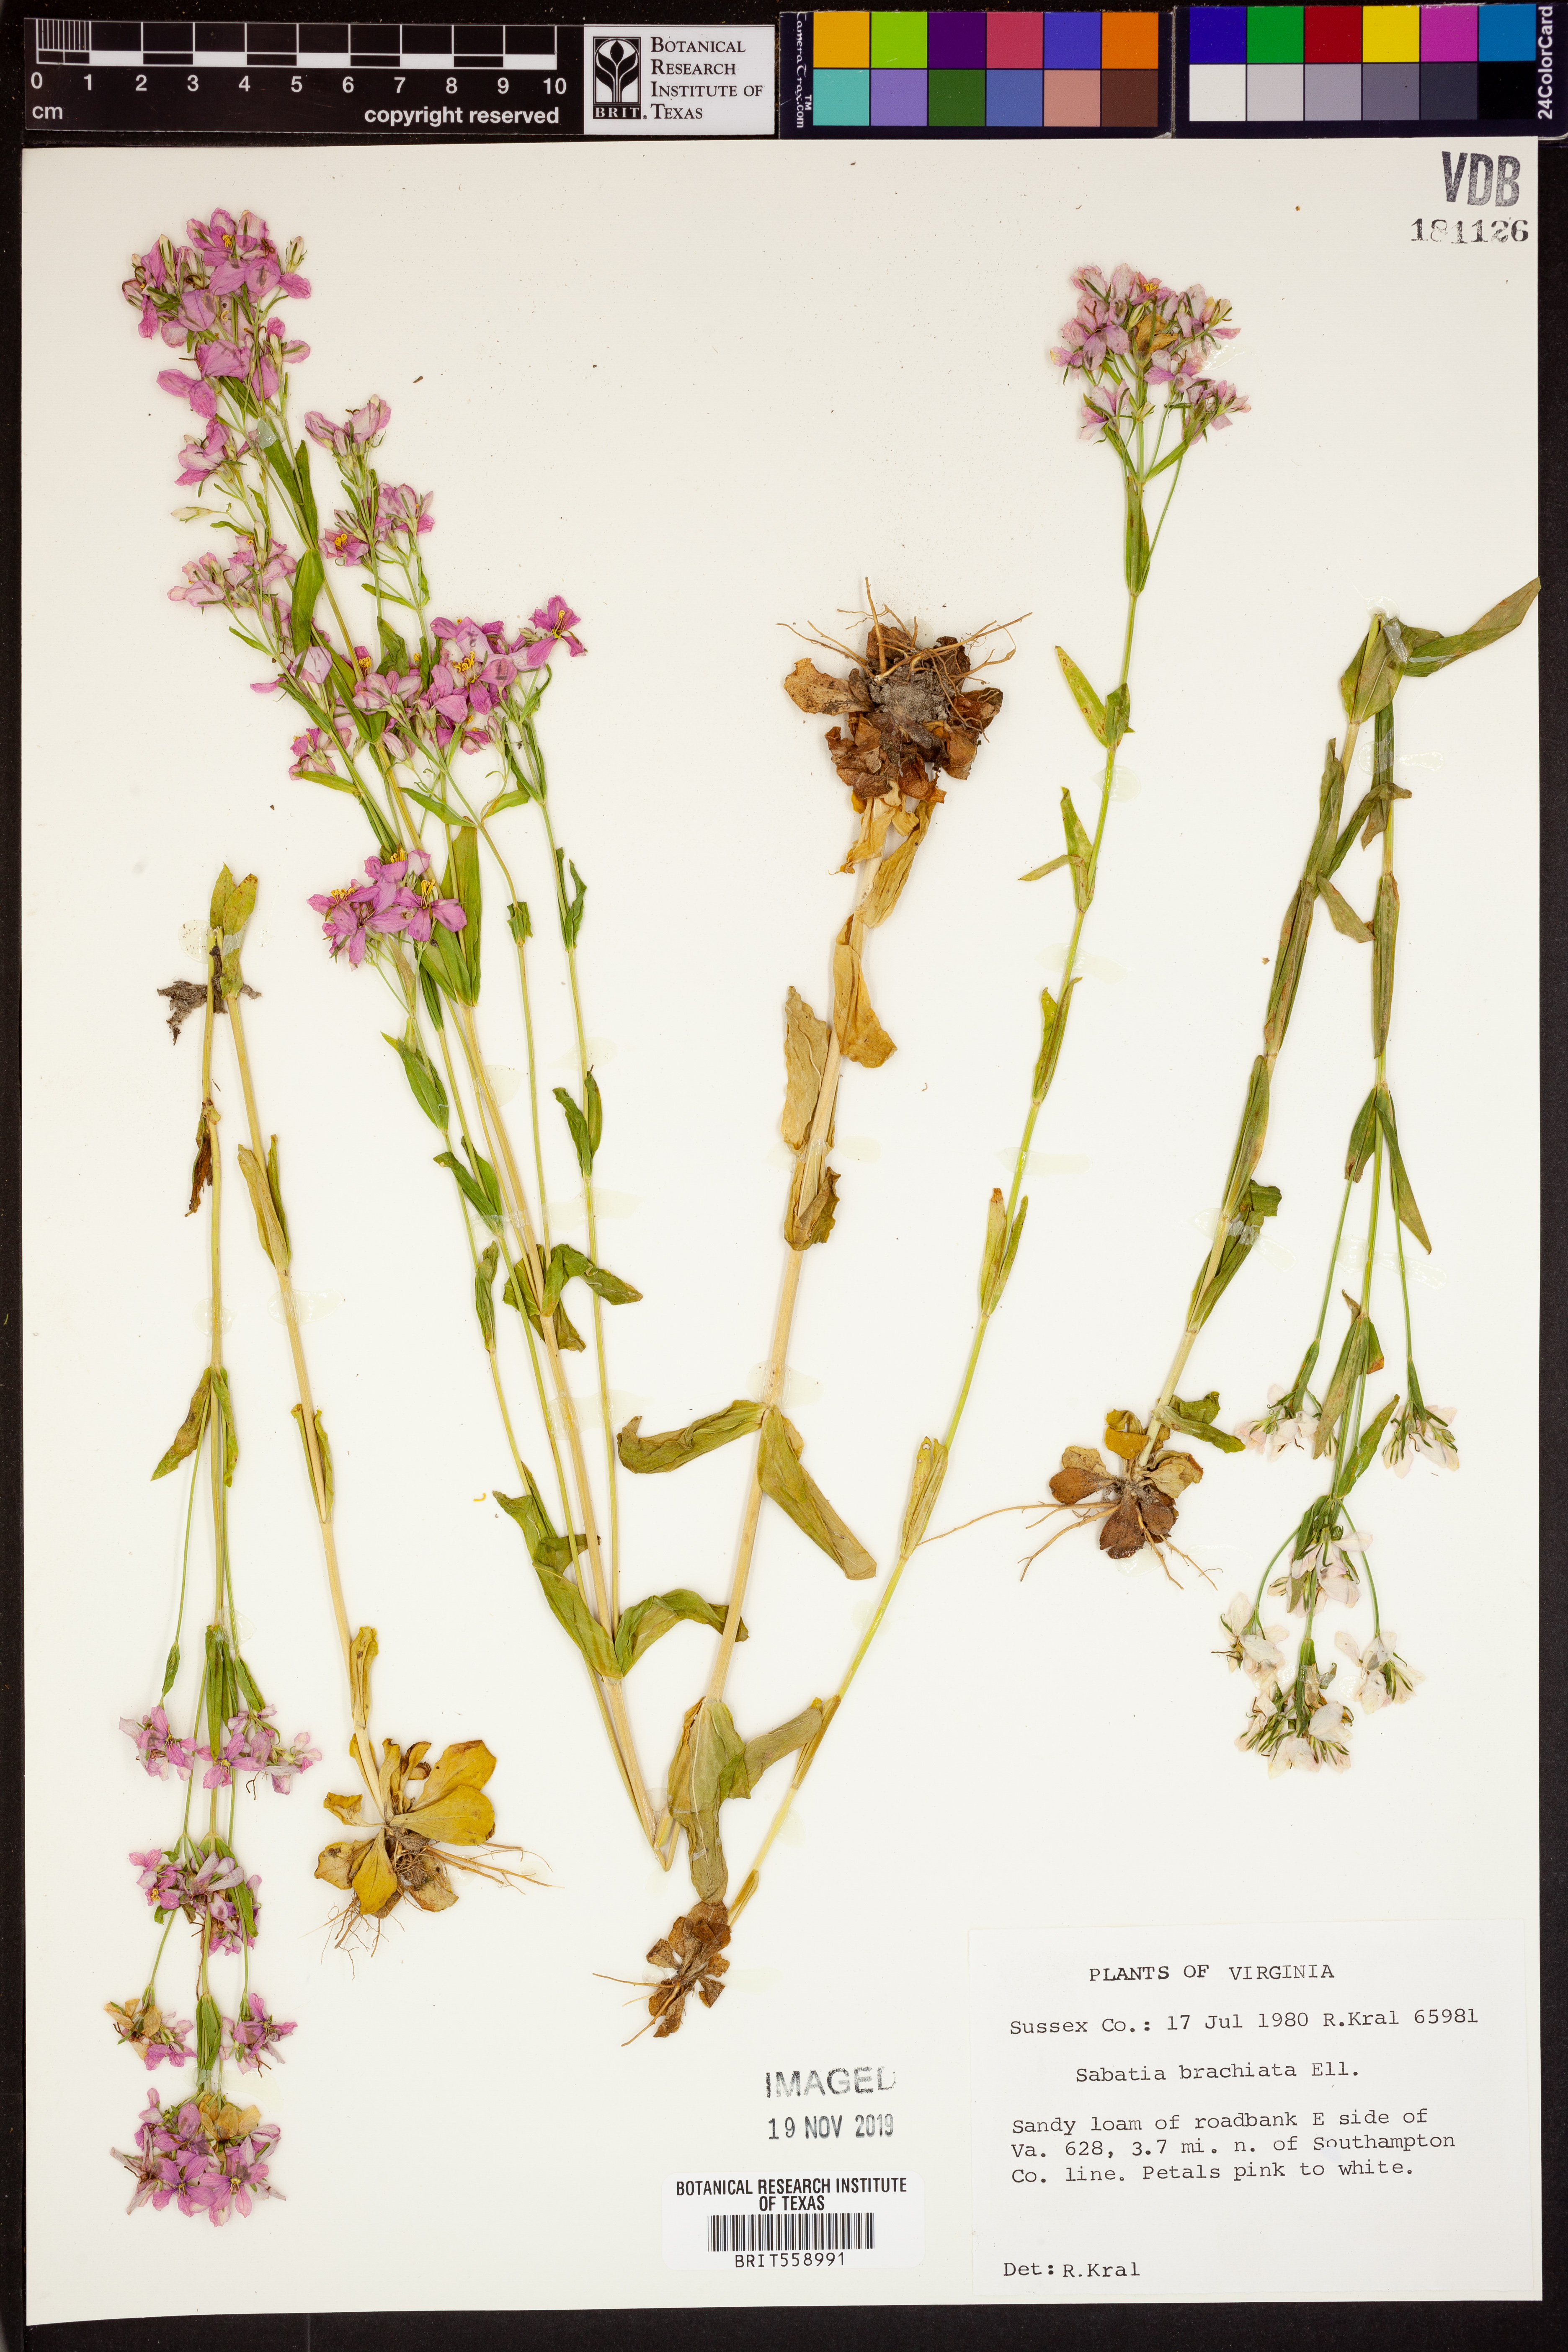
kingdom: Plantae
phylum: Tracheophyta
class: Magnoliopsida
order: Gentianales
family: Gentianaceae
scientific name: Gentianaceae
